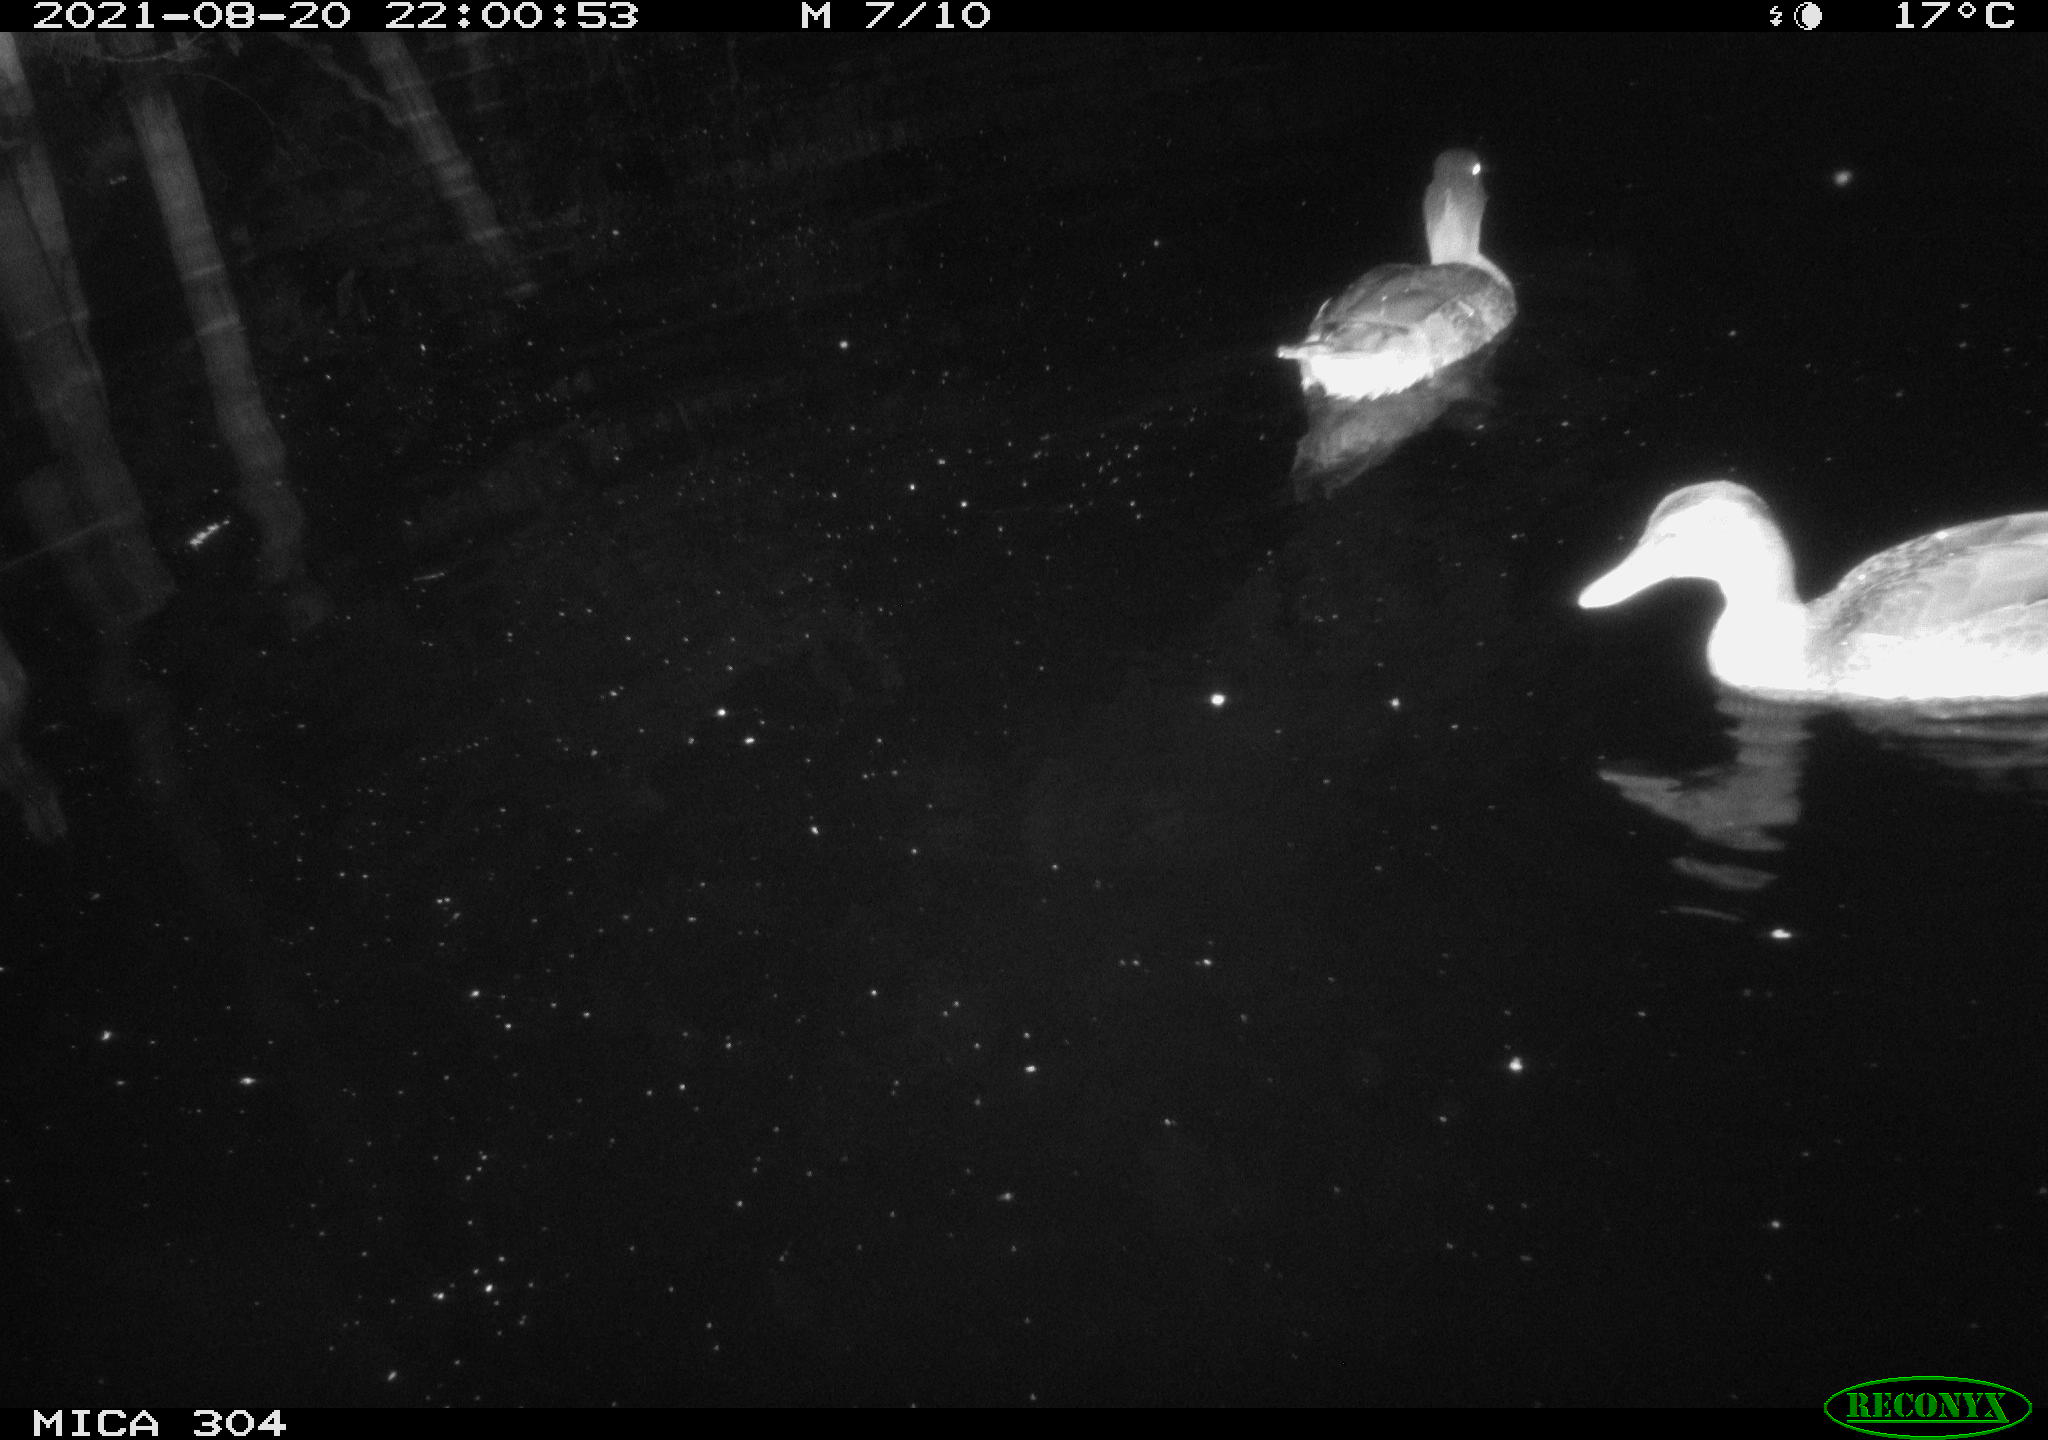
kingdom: Animalia
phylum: Chordata
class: Aves
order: Anseriformes
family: Anatidae
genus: Mareca
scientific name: Mareca strepera
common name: Gadwall
